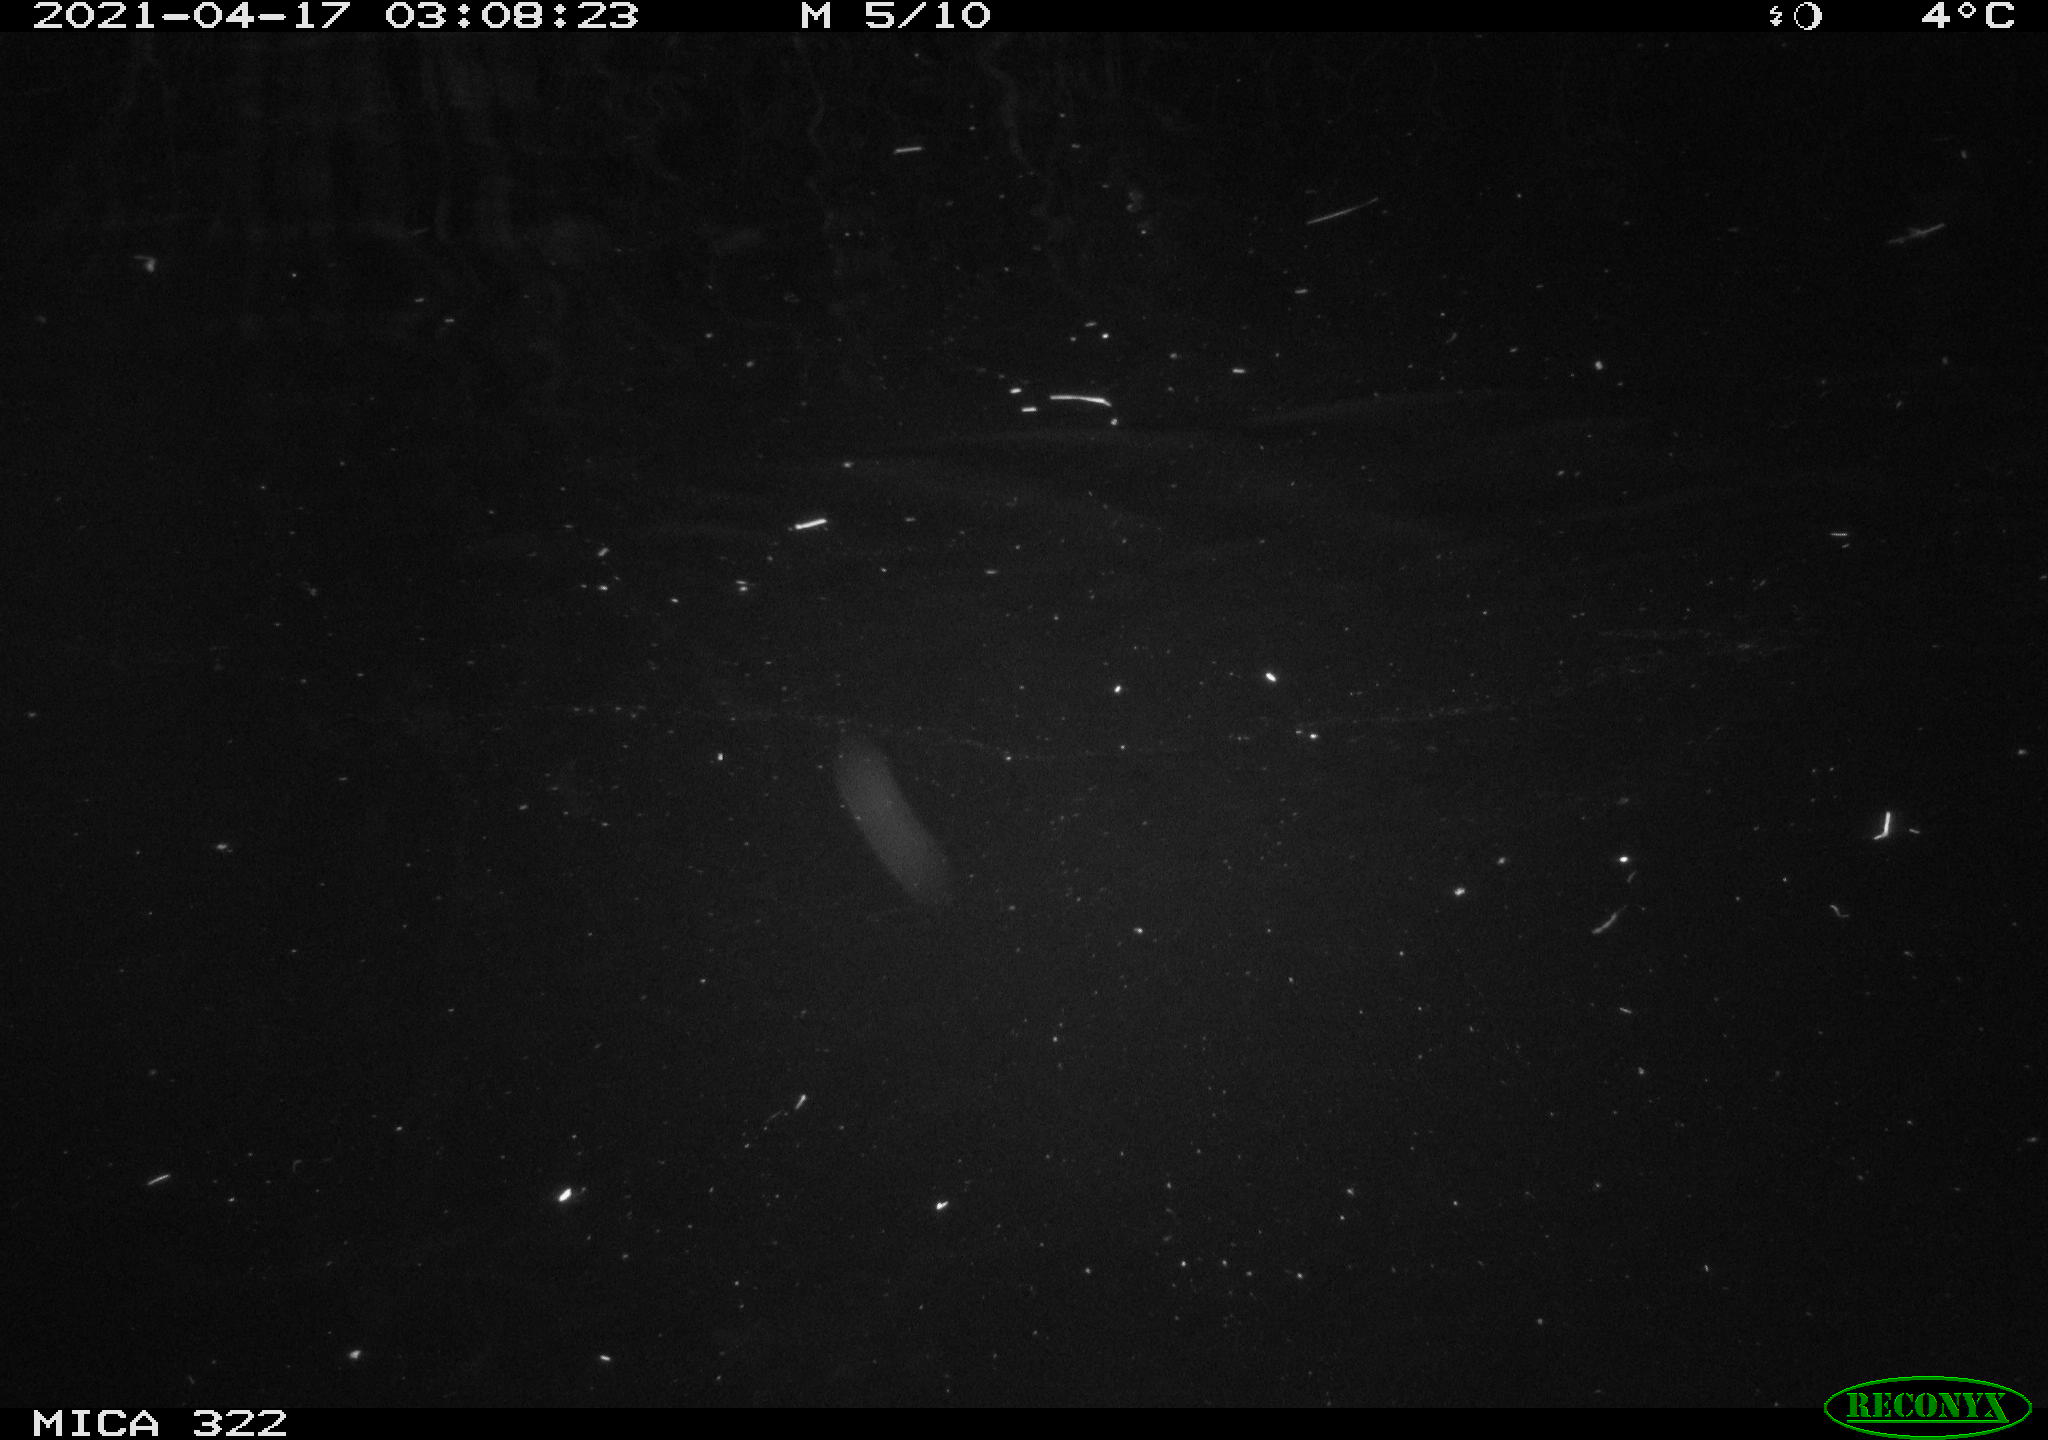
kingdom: Animalia
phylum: Chordata
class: Aves
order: Gruiformes
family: Rallidae
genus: Gallinula
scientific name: Gallinula chloropus
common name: Common moorhen
